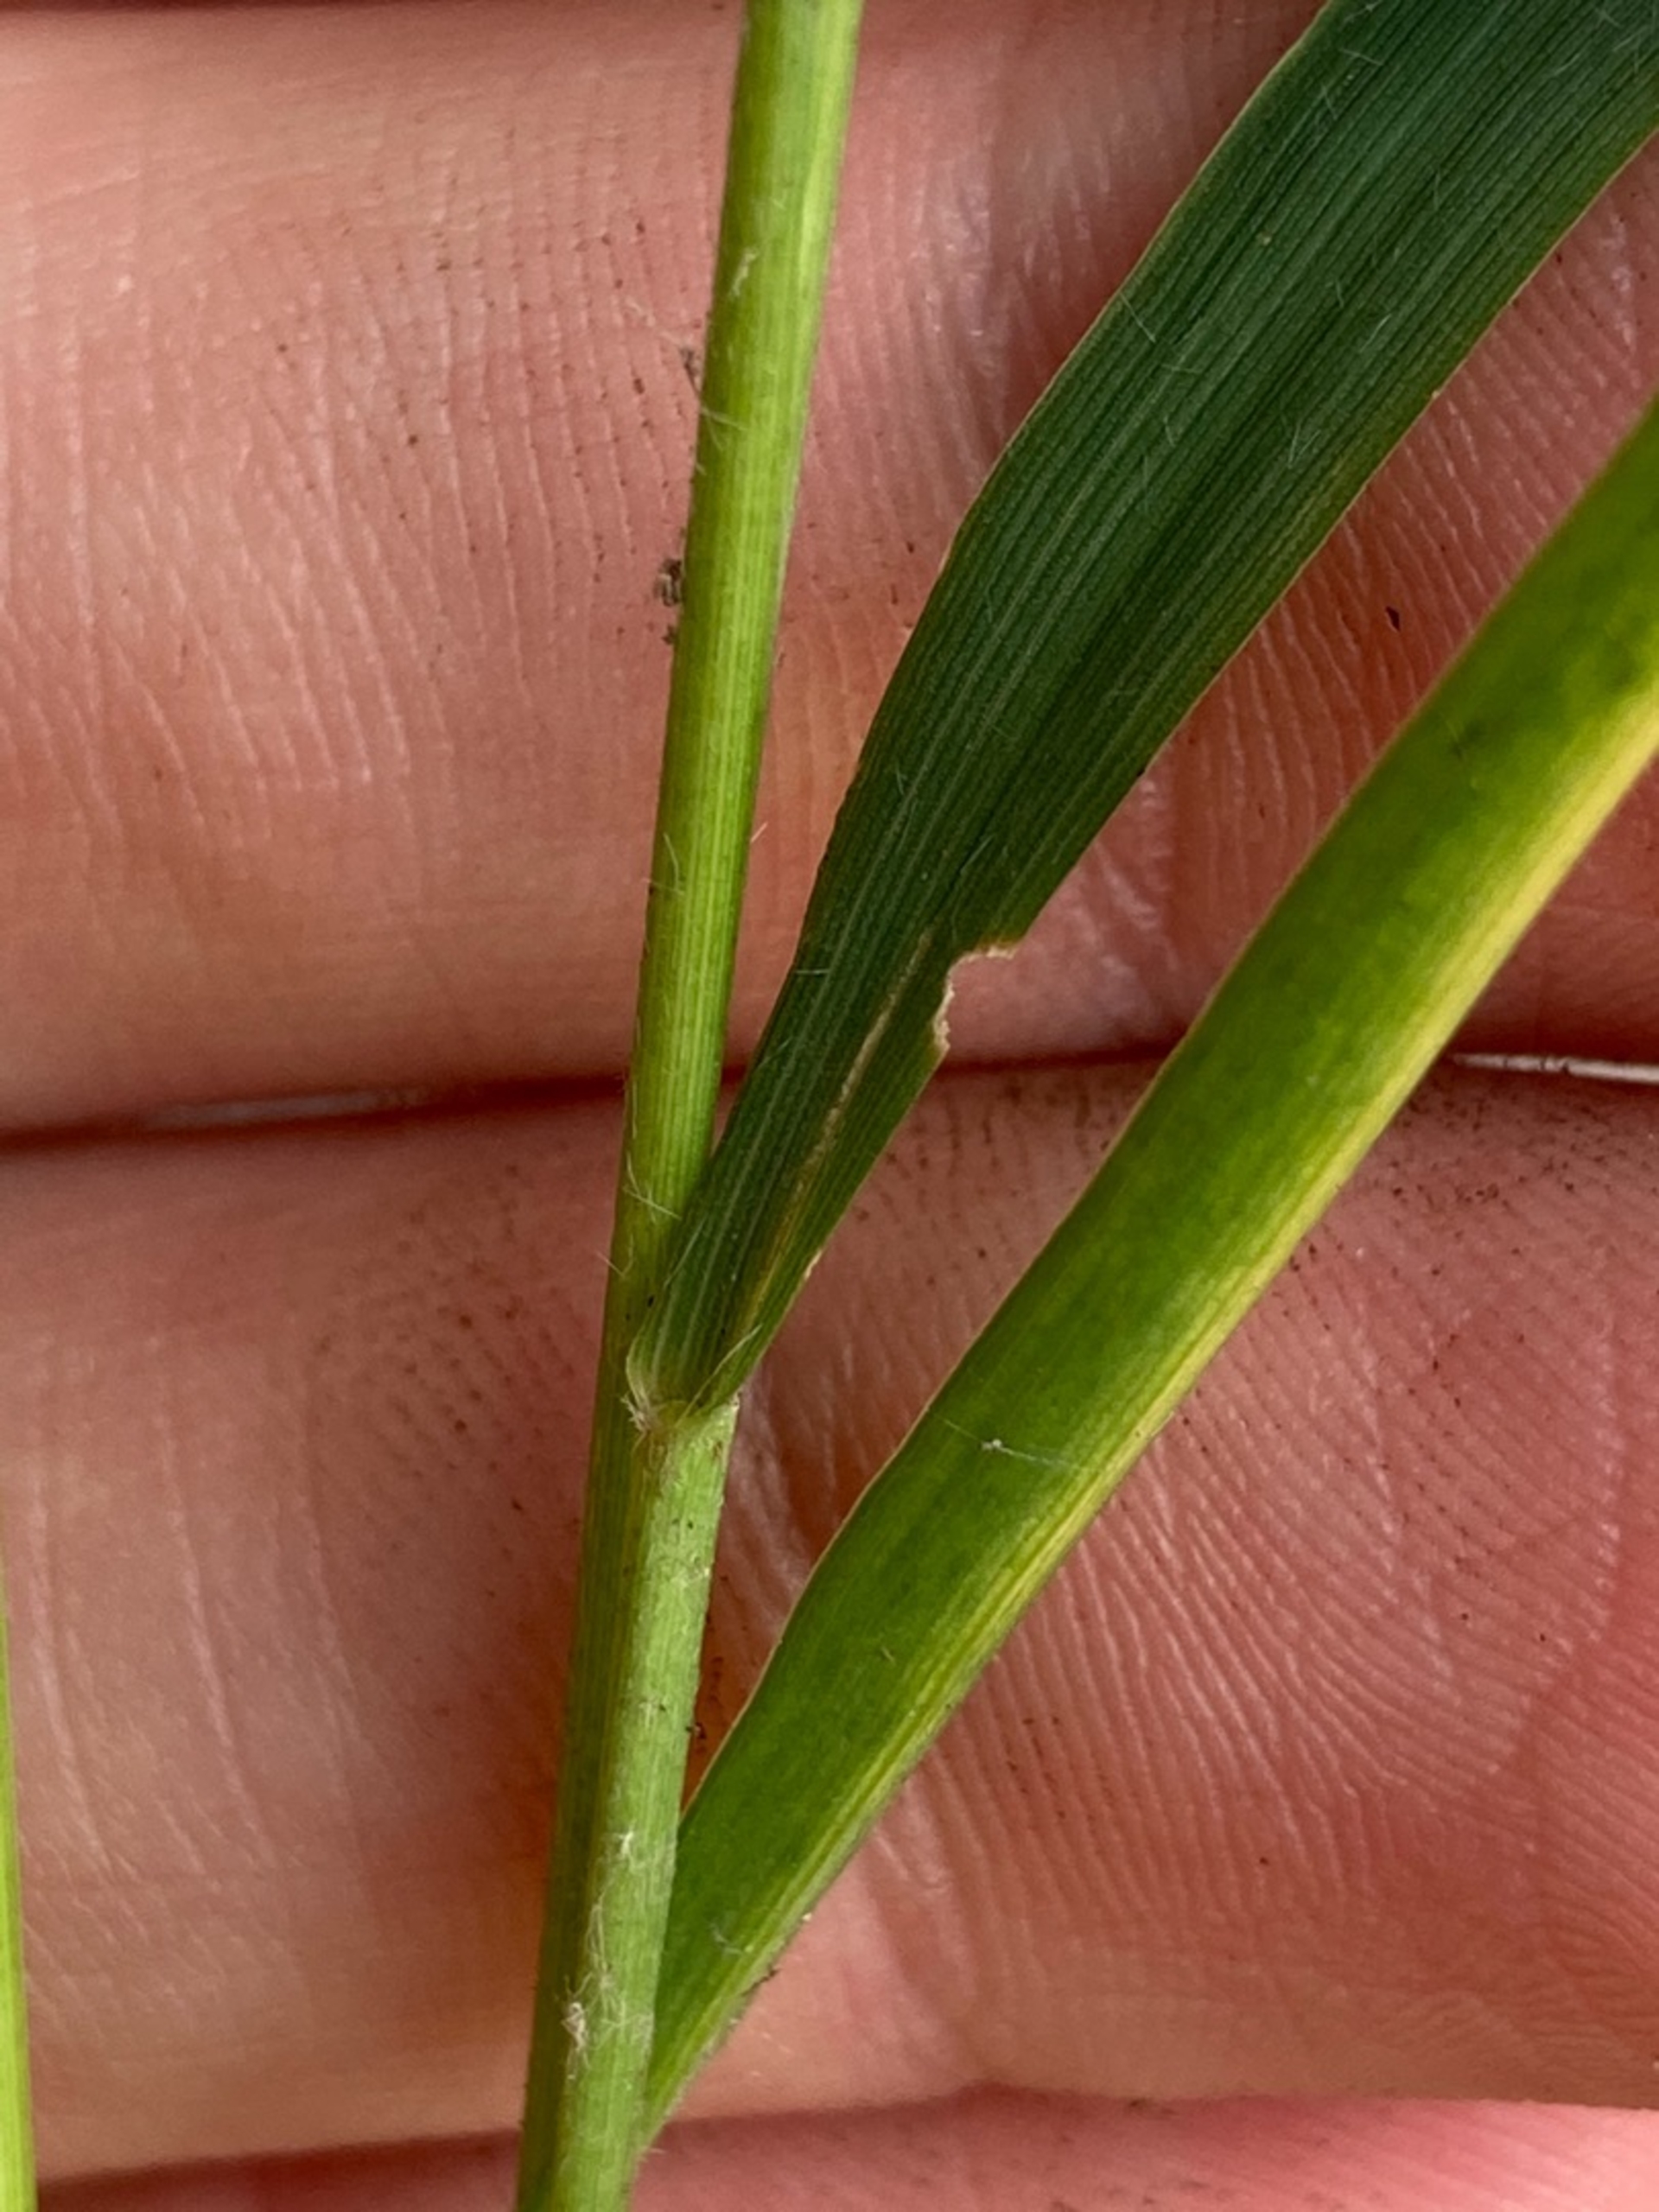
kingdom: Plantae
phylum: Tracheophyta
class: Liliopsida
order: Poales
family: Poaceae
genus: Molinia
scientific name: Molinia caerulea
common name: Blåtop
